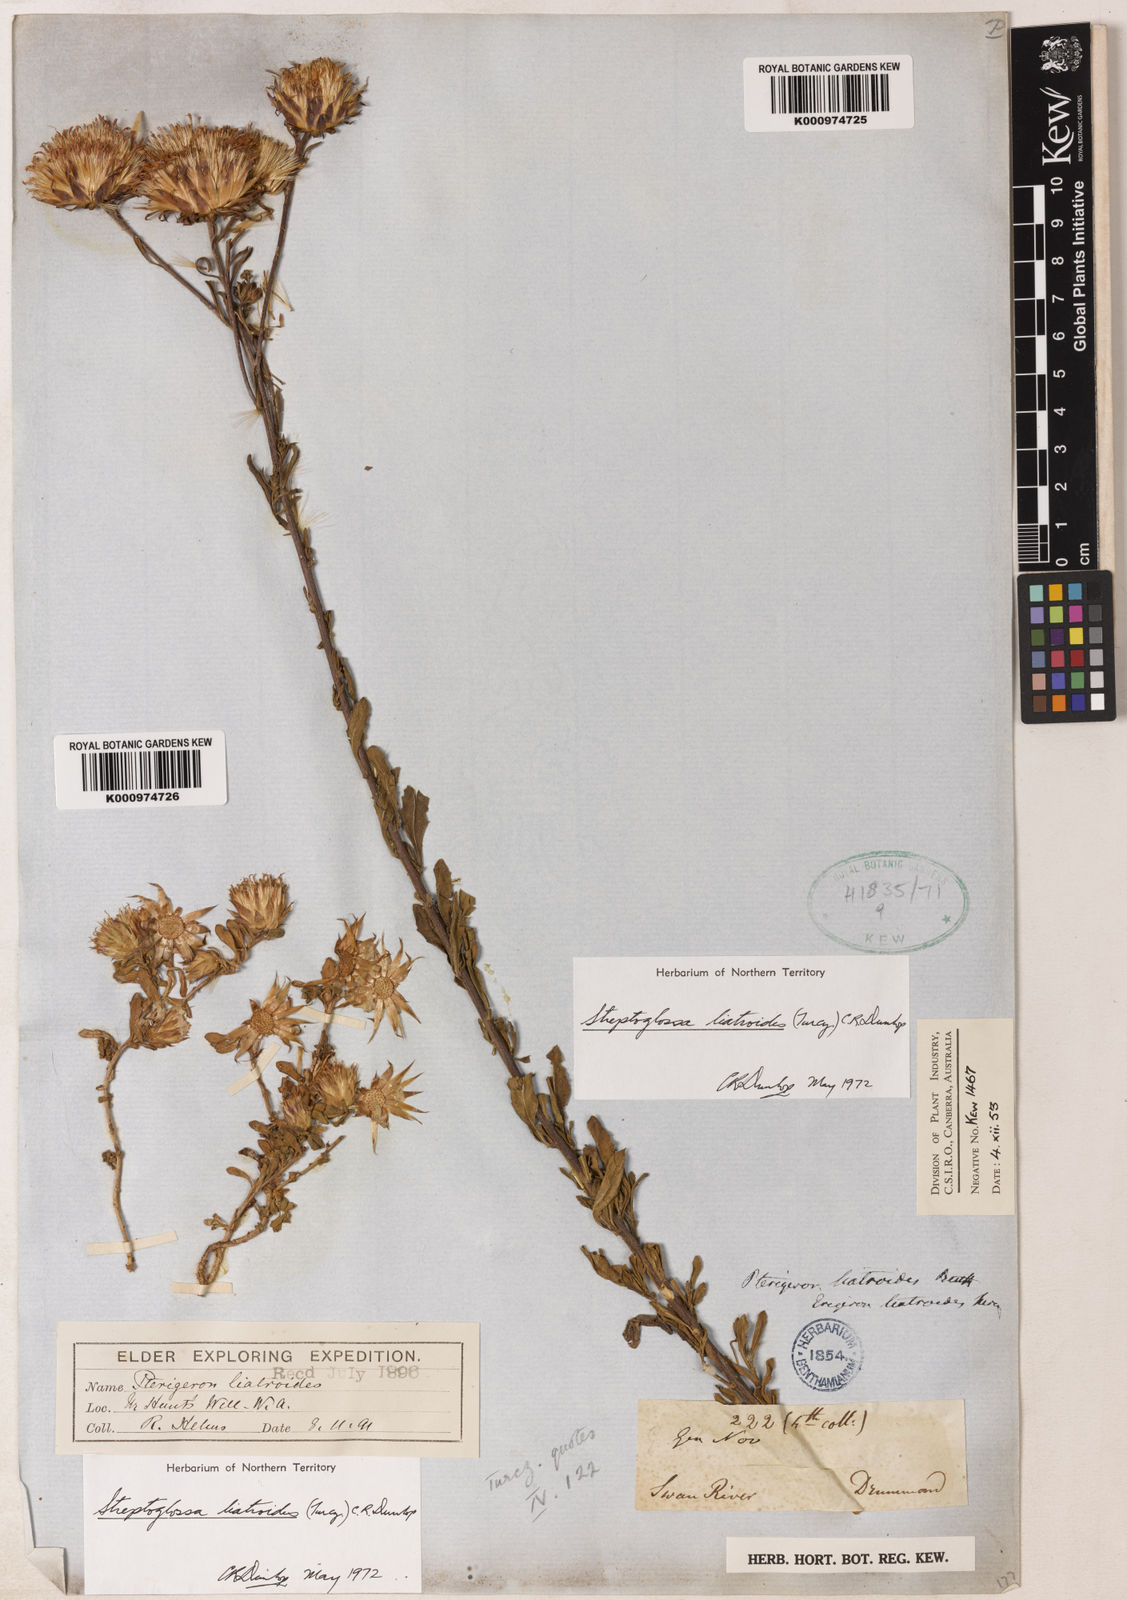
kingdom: Plantae
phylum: Tracheophyta
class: Magnoliopsida
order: Asterales
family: Asteraceae
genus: Streptoglossa
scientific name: Streptoglossa liatroides
